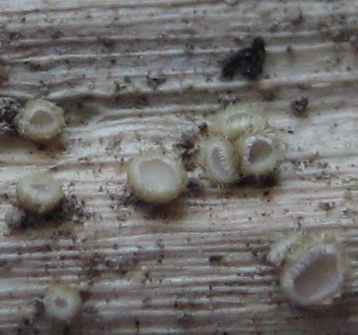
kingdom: Fungi
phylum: Ascomycota
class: Leotiomycetes
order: Helotiales
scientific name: Helotiales
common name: stilkskiveordenen
